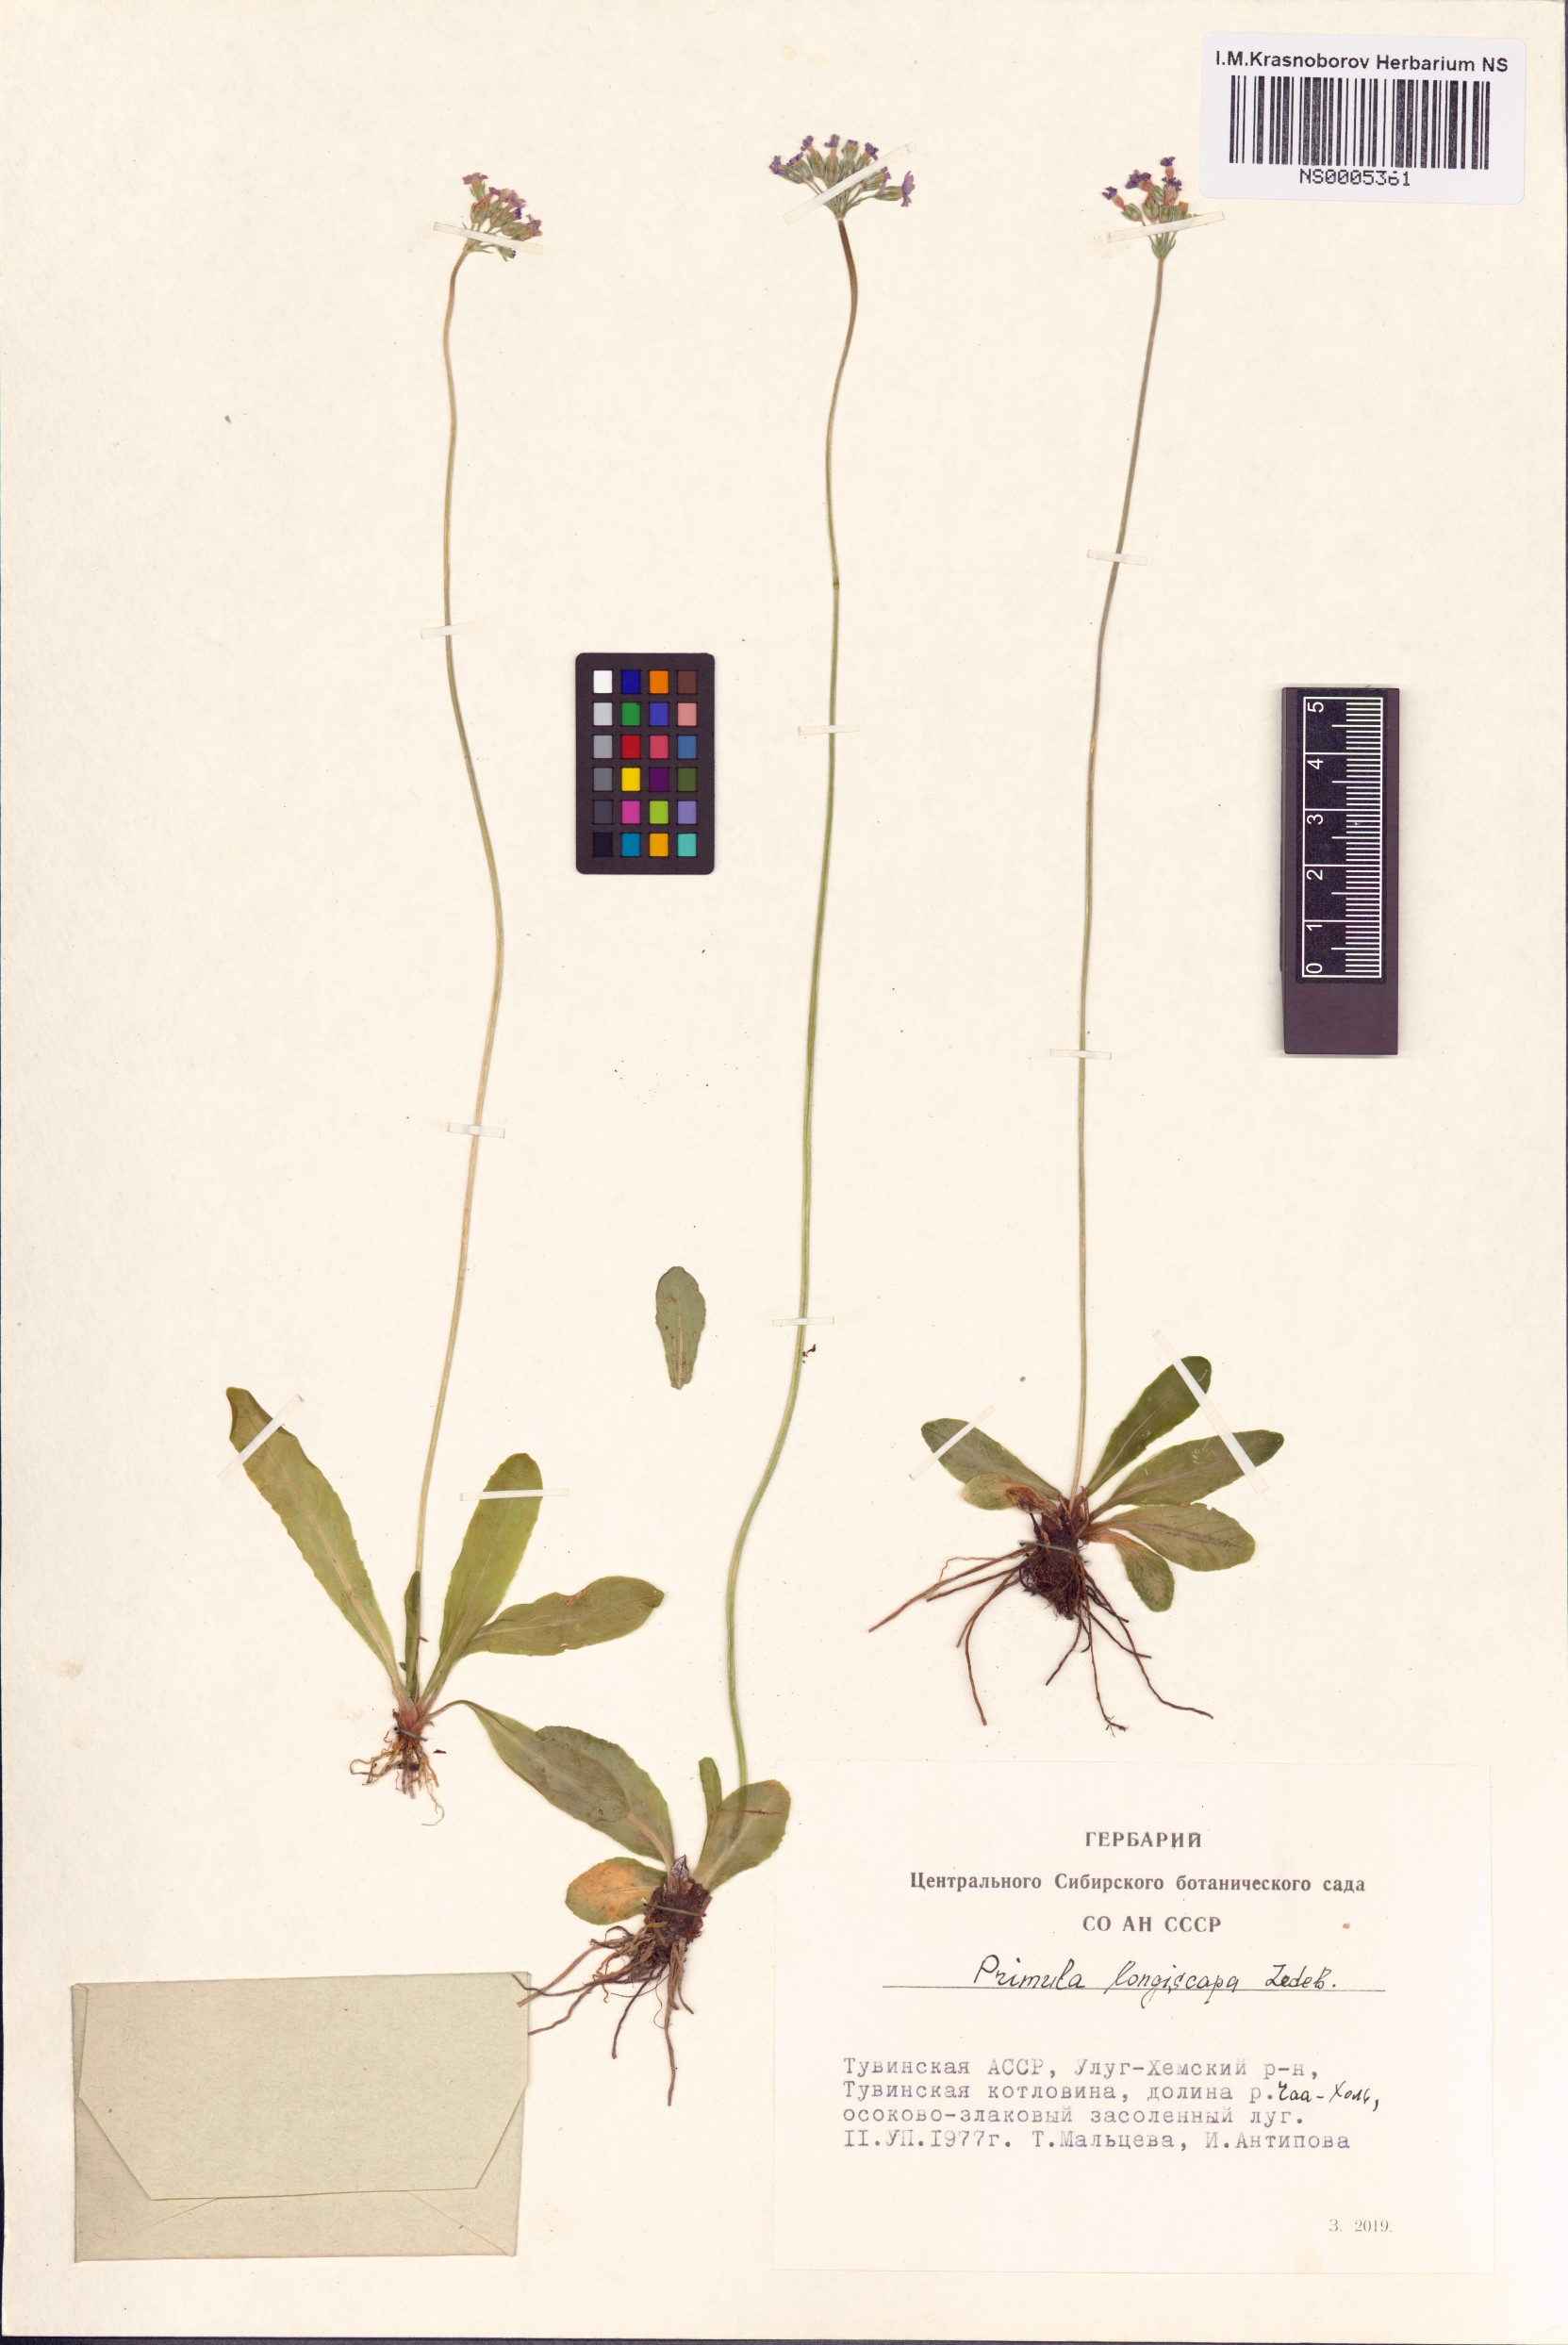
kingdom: Plantae
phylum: Tracheophyta
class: Magnoliopsida
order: Ericales
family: Primulaceae
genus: Primula
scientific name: Primula longiscapa
